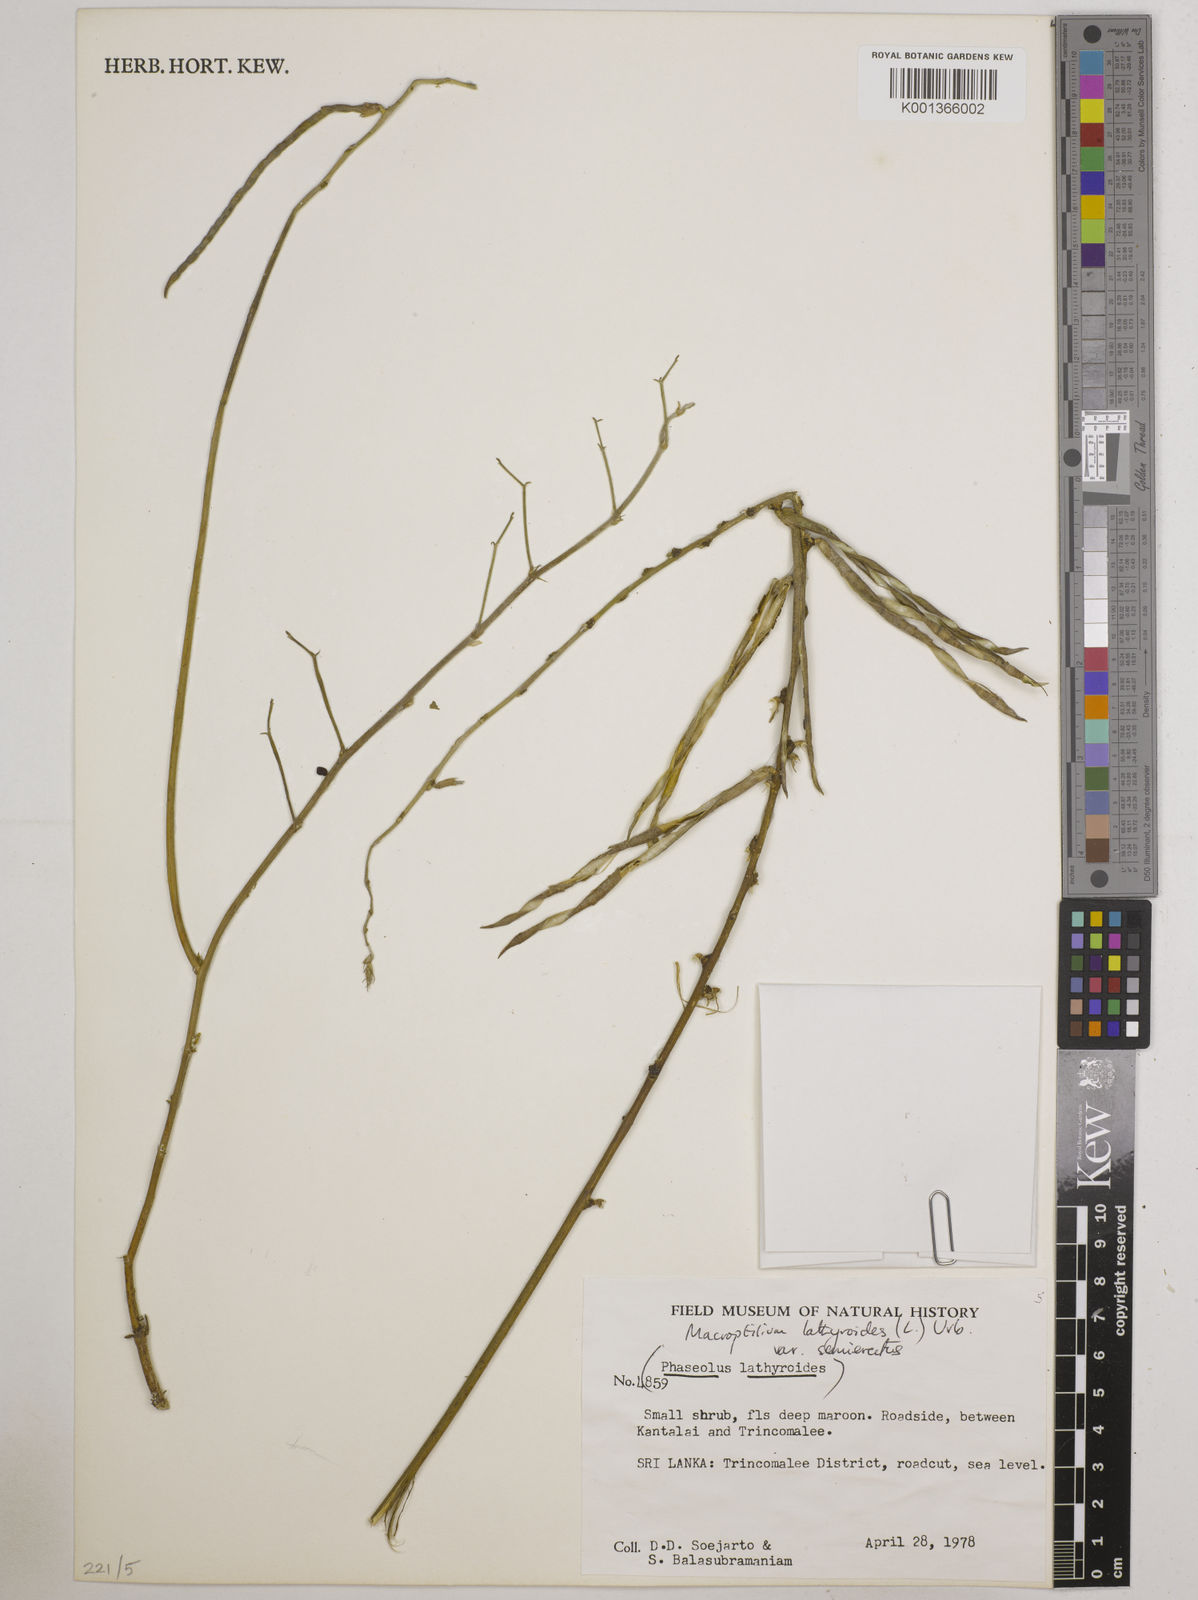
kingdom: Plantae
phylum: Tracheophyta
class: Magnoliopsida
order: Fabales
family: Fabaceae
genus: Macroptilium
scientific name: Macroptilium lathyroides
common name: Wild bushbean
